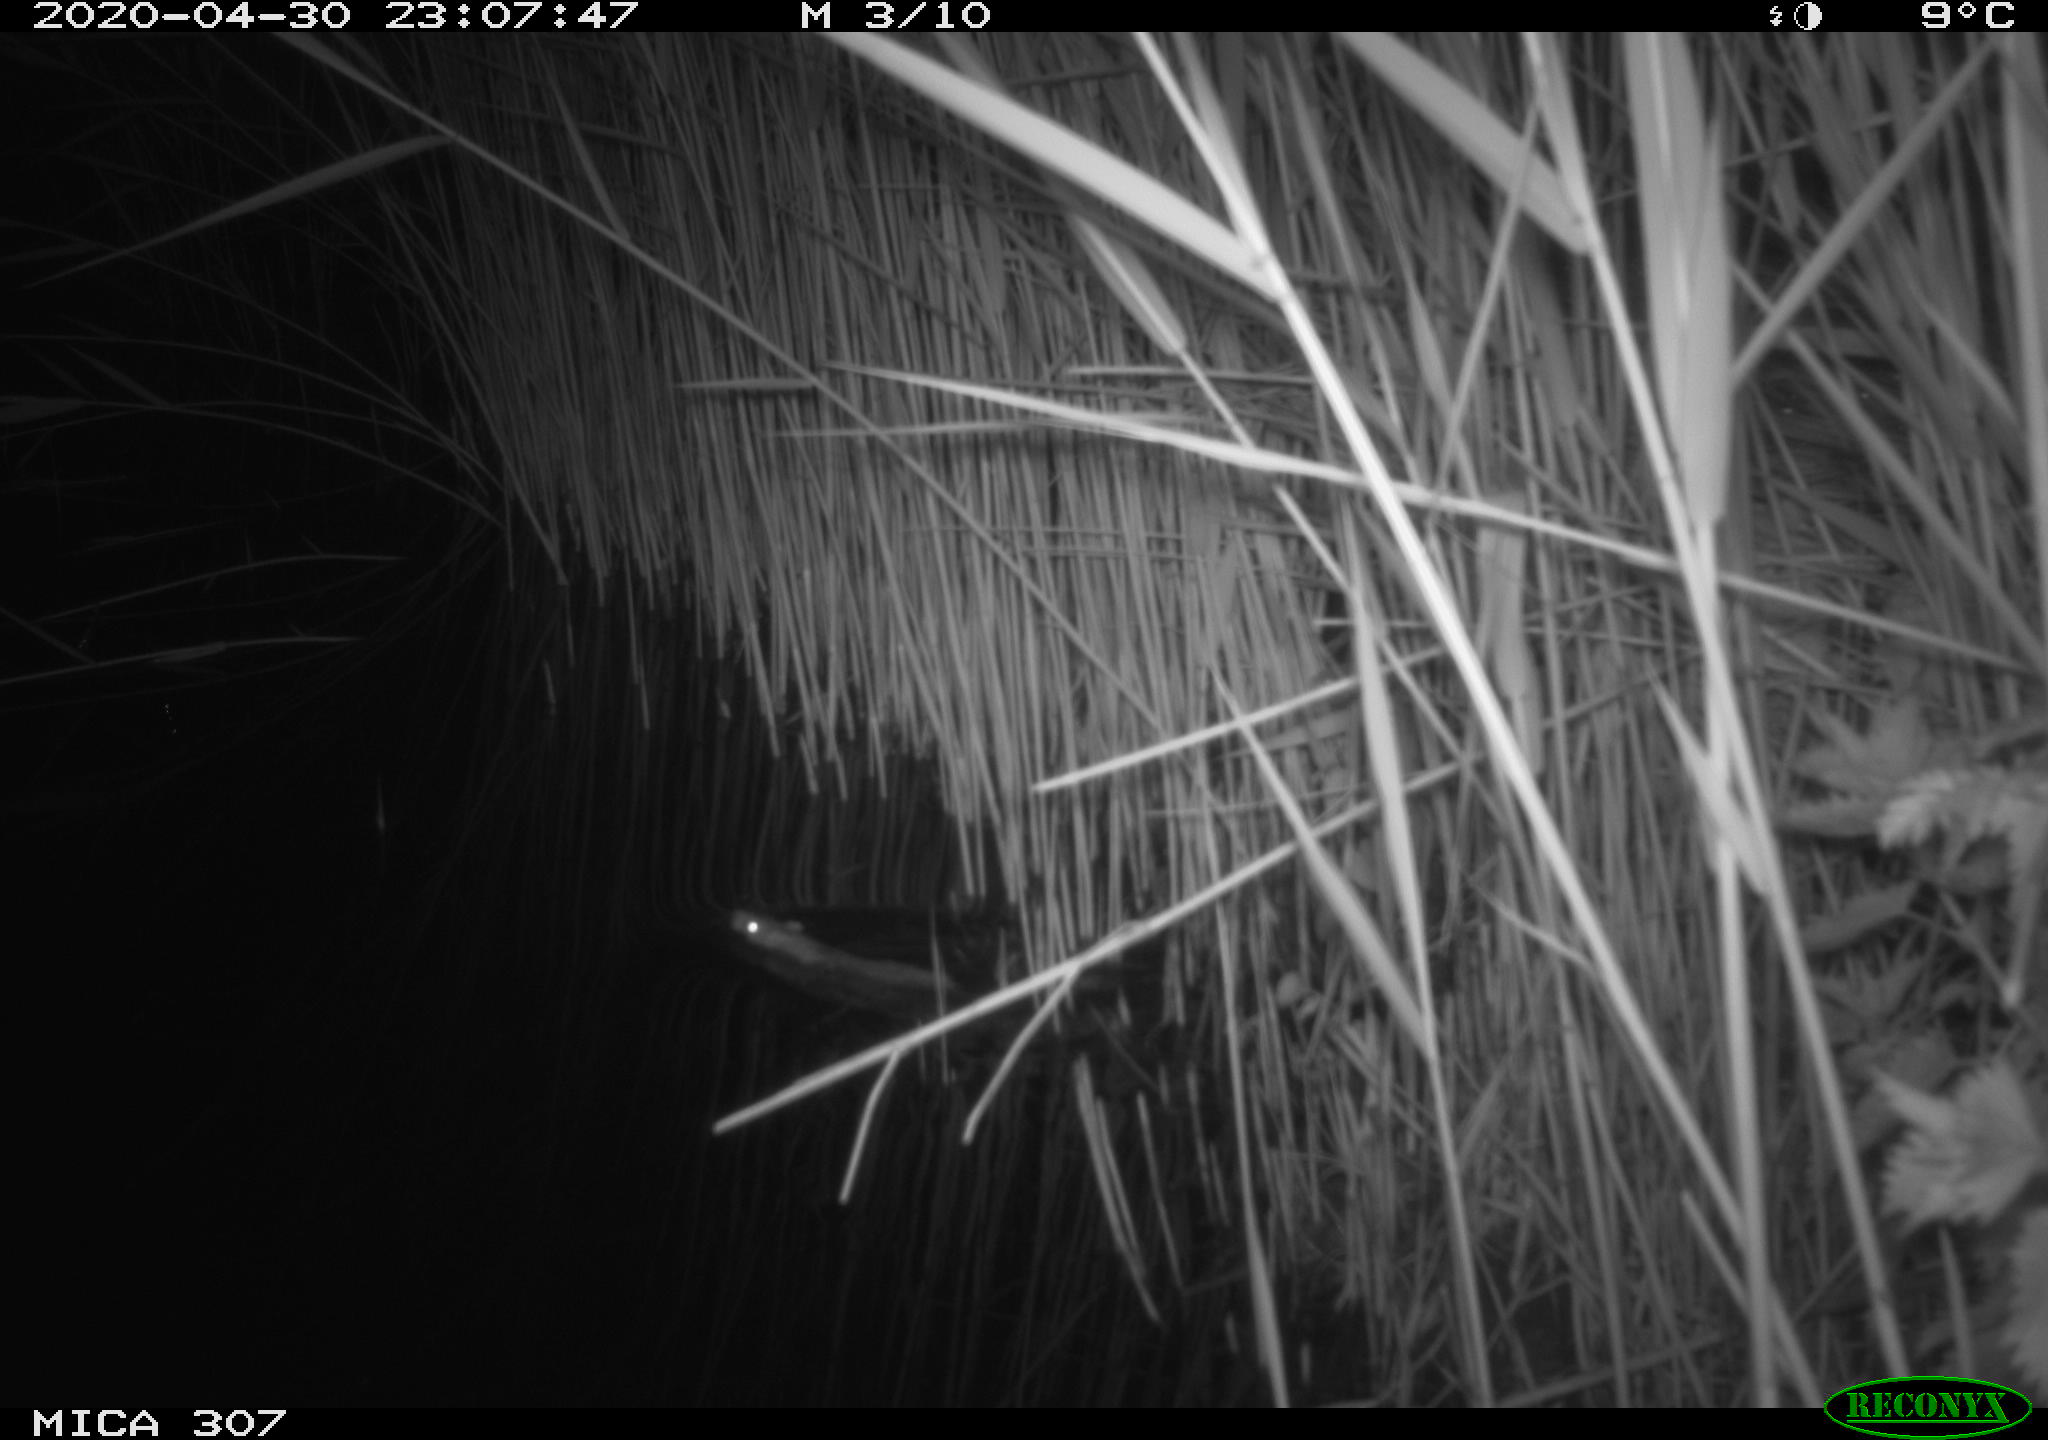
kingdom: Animalia
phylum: Chordata
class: Mammalia
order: Rodentia
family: Muridae
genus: Rattus
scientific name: Rattus norvegicus
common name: Brown rat
